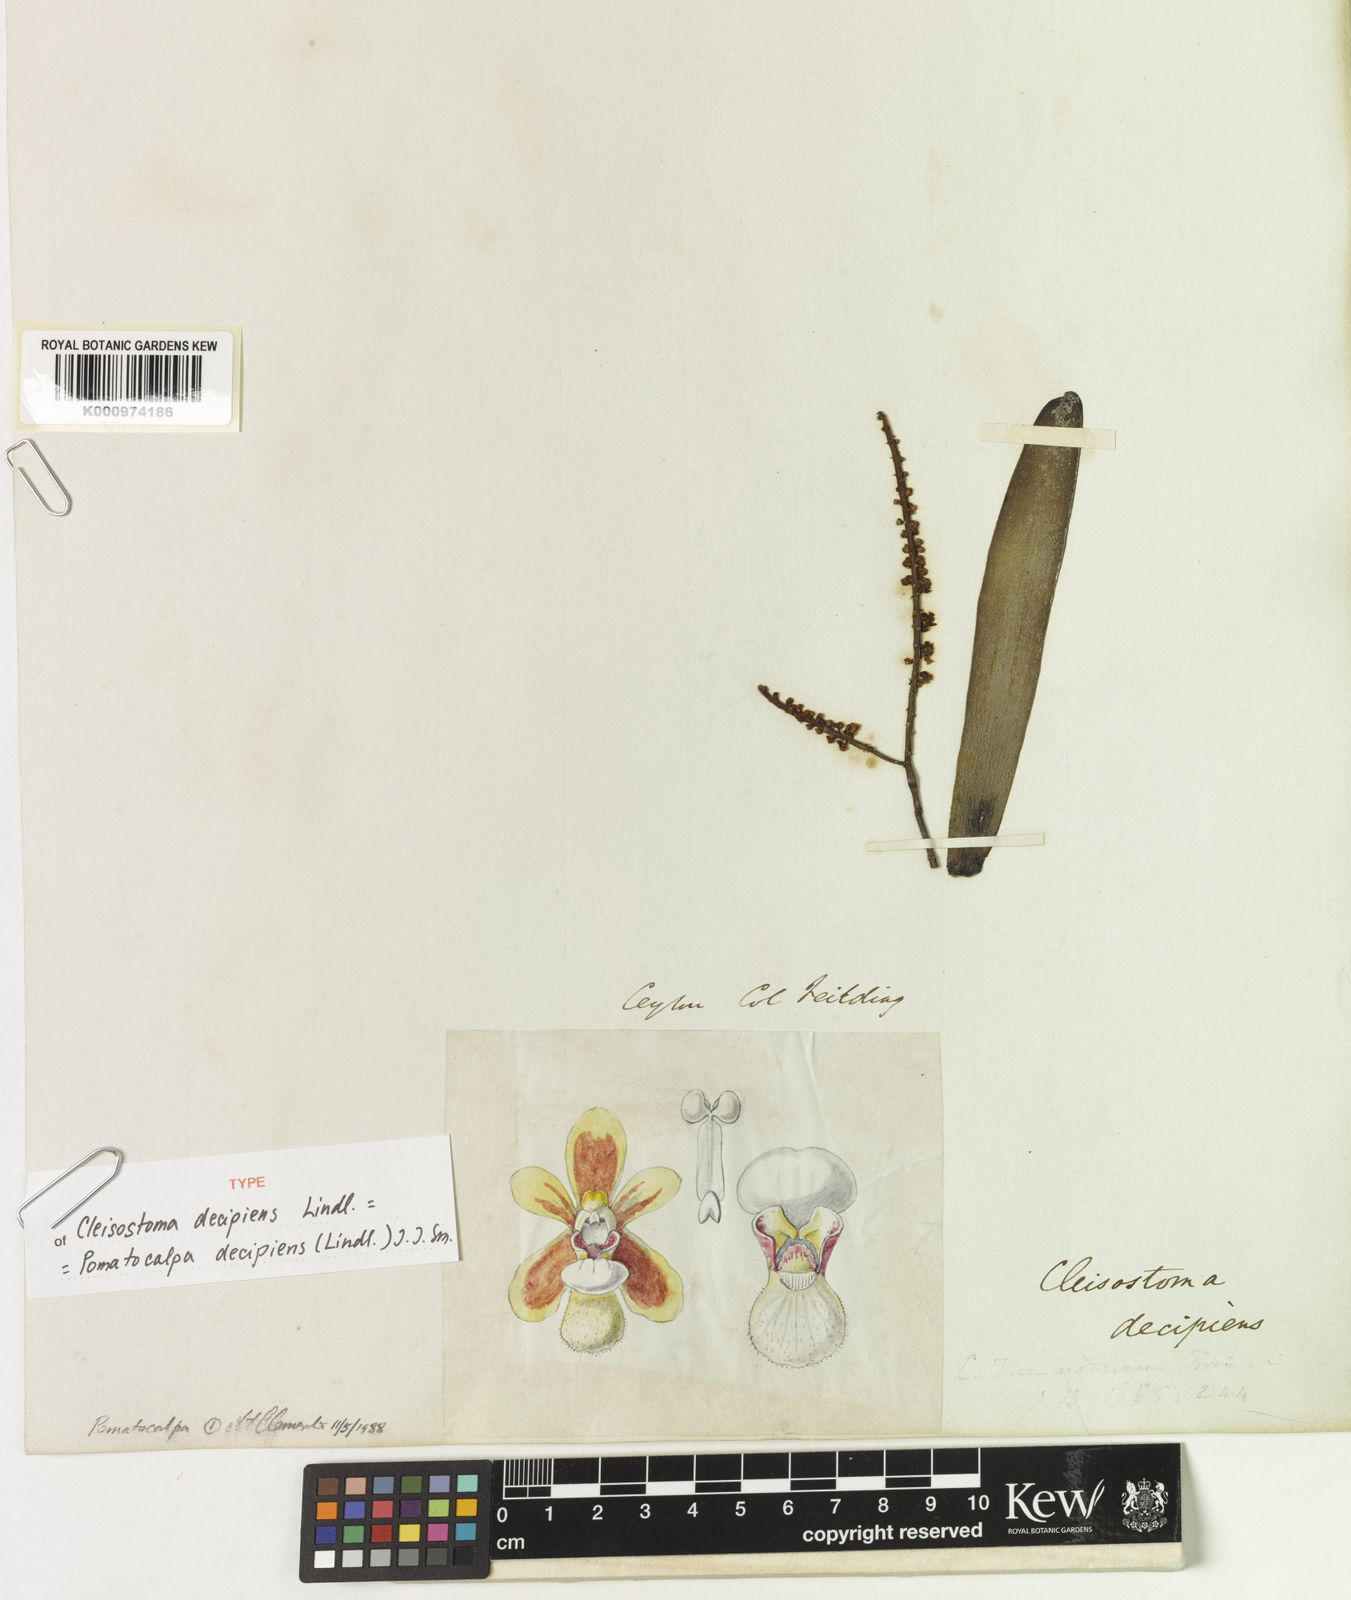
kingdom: Plantae
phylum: Tracheophyta
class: Liliopsida
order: Asparagales
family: Orchidaceae
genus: Pomatocalpa
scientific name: Pomatocalpa decipiens
